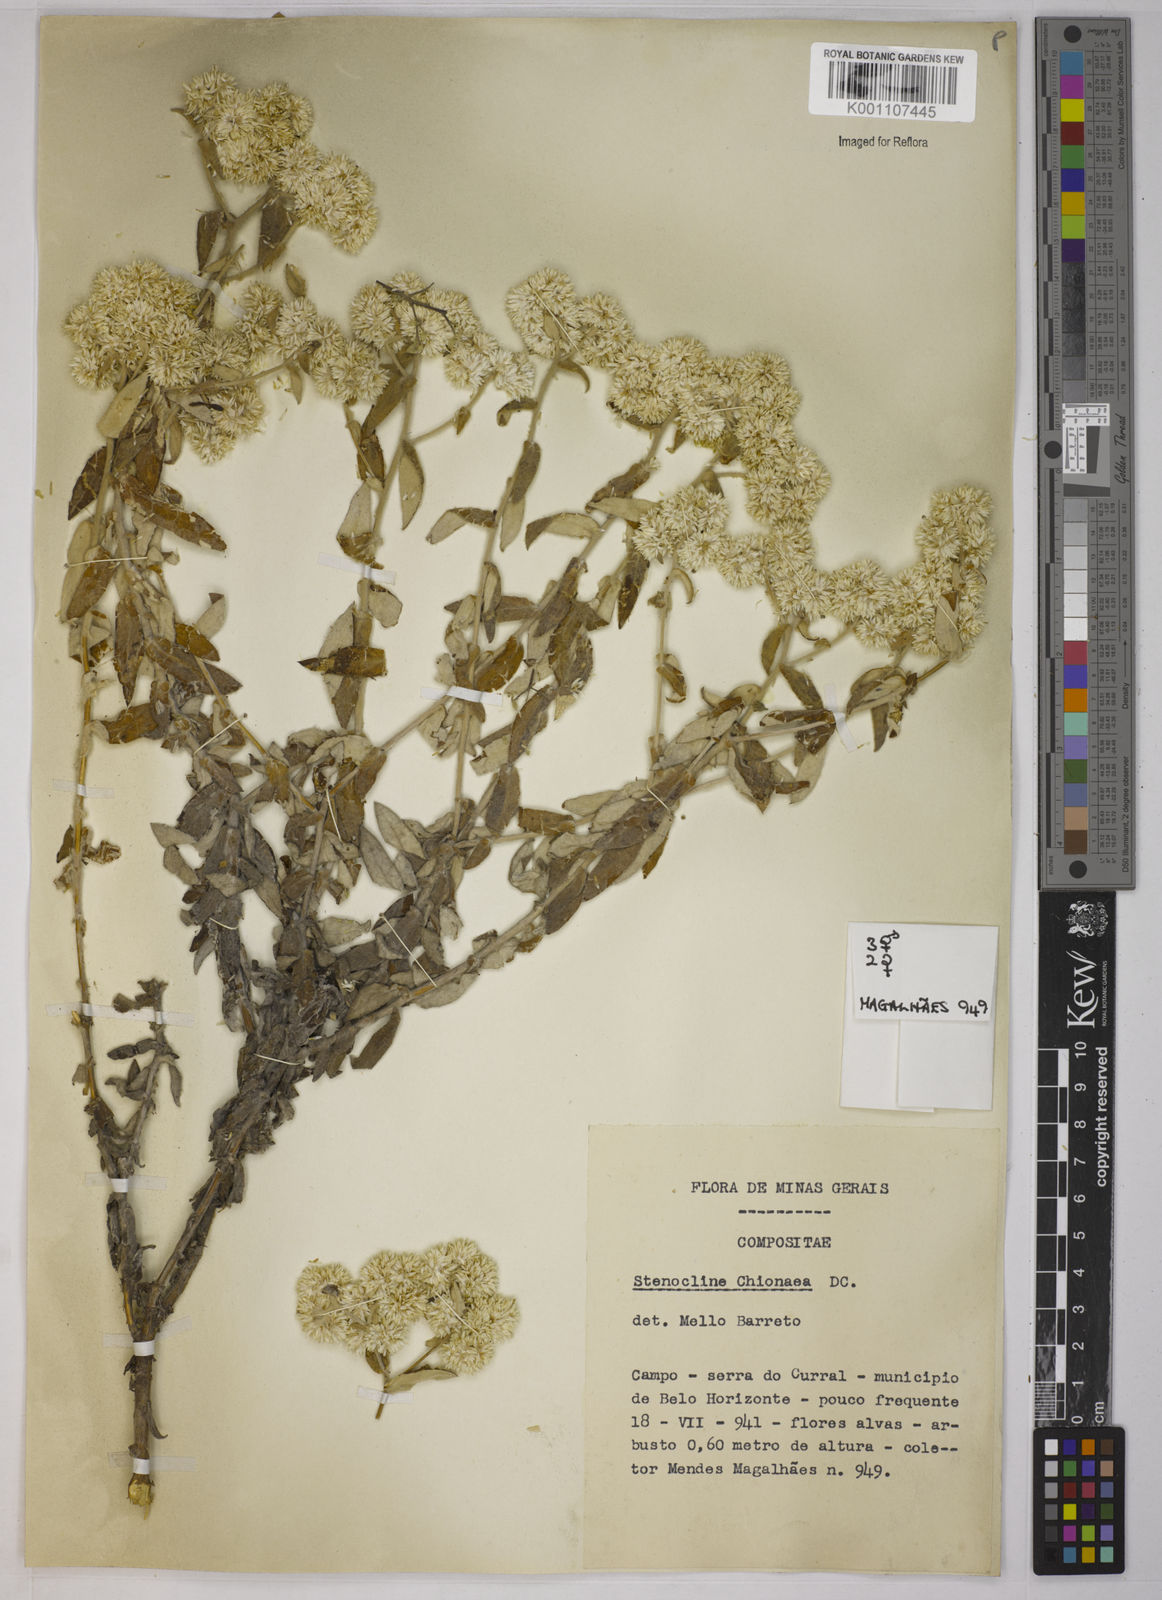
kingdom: Plantae
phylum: Tracheophyta
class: Magnoliopsida
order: Asterales
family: Asteraceae
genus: Achyrocline
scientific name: Achyrocline chionaea
